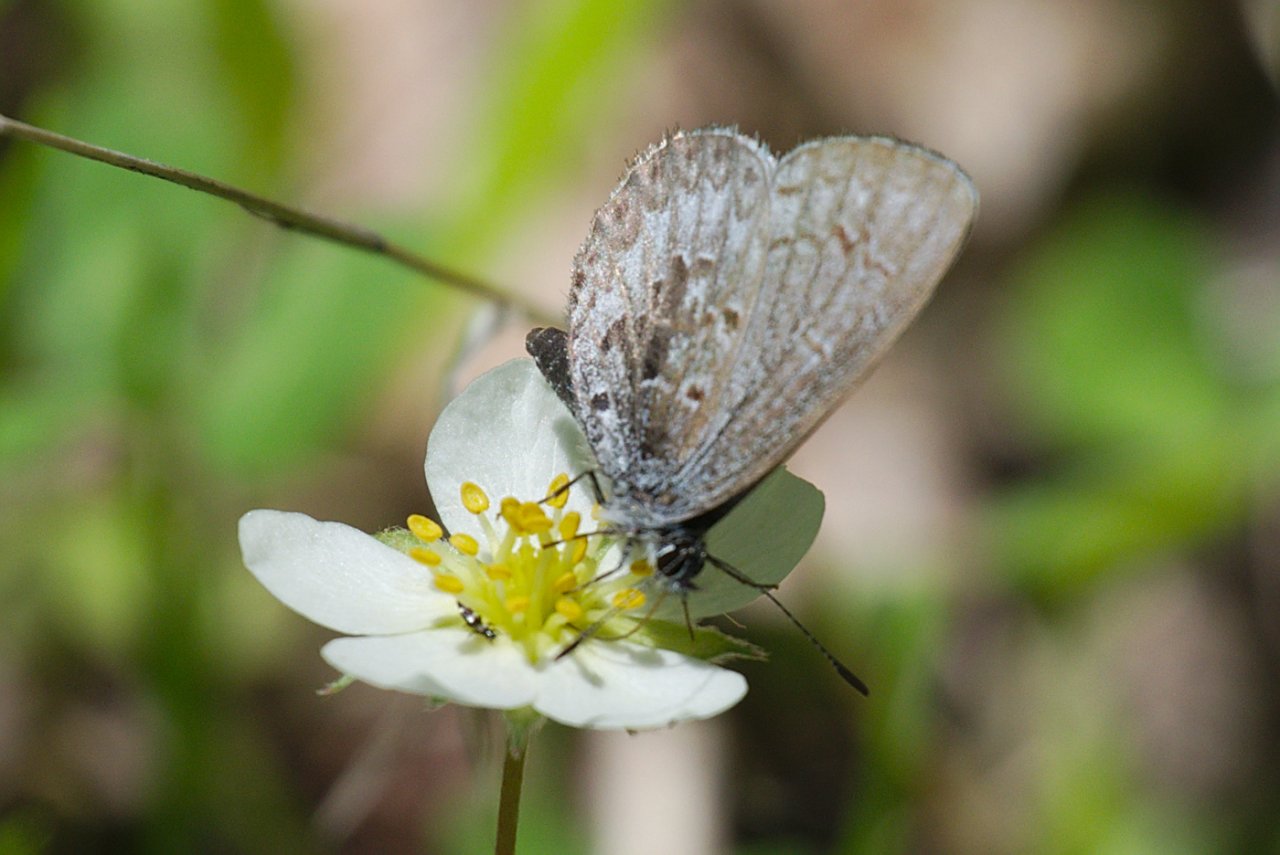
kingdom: Animalia
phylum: Arthropoda
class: Insecta
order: Lepidoptera
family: Lycaenidae
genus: Celastrina
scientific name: Celastrina lucia
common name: Northern Spring Azure
